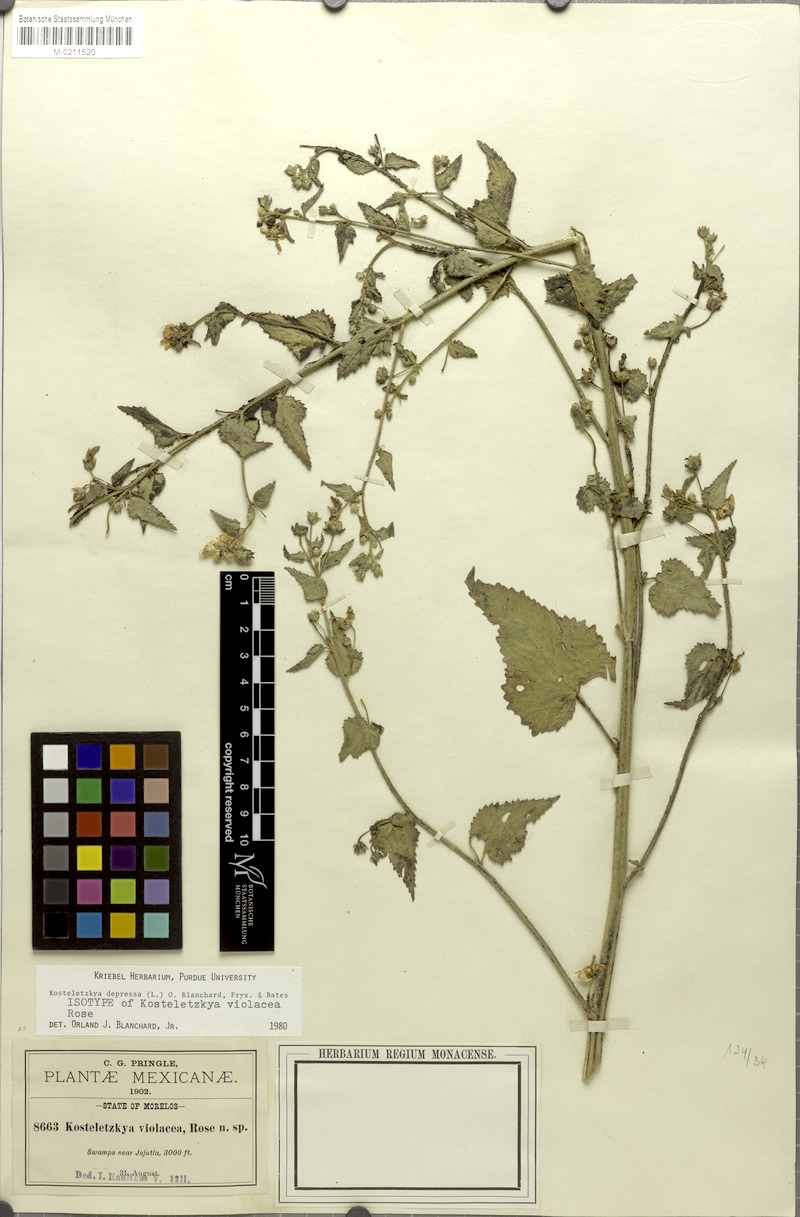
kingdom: Plantae
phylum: Tracheophyta
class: Magnoliopsida
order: Malvales
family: Malvaceae
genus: Kosteletzkya
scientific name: Kosteletzkya depressa
